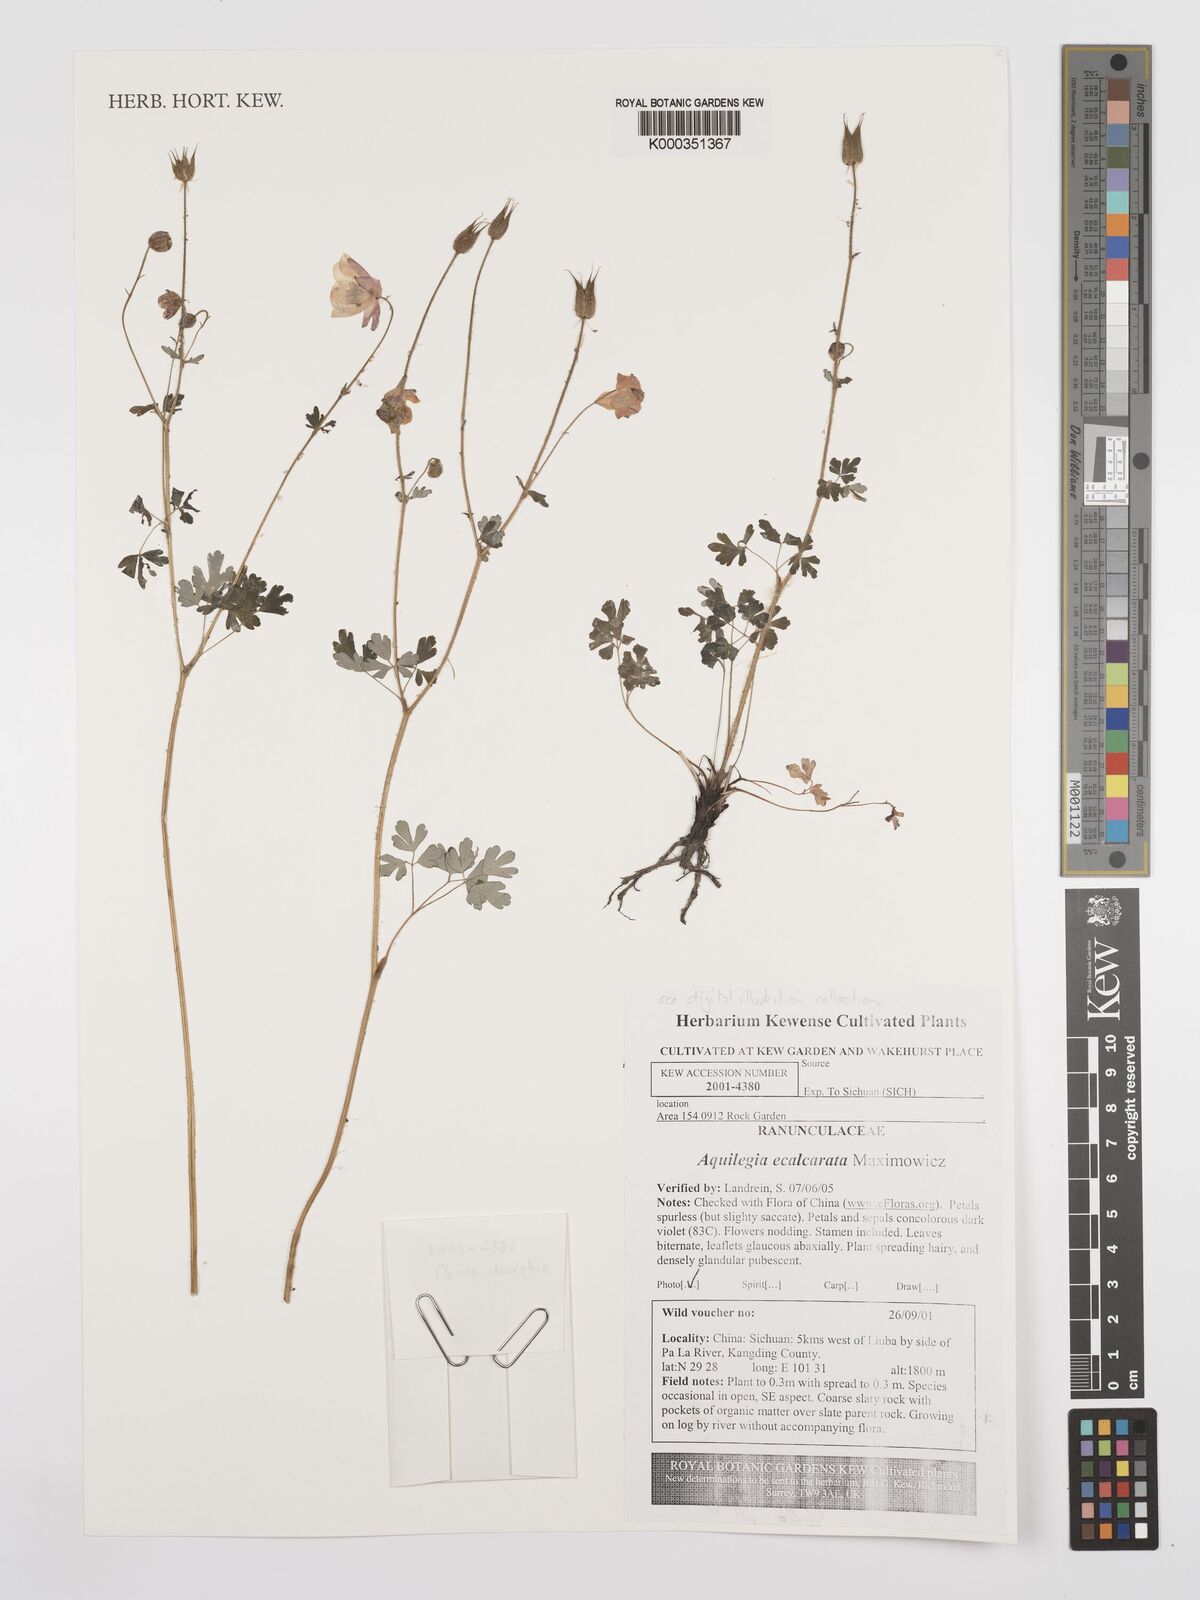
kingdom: Plantae
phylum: Tracheophyta
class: Magnoliopsida
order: Ranunculales
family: Ranunculaceae
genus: Aquilegia
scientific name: Aquilegia ecalcarata
